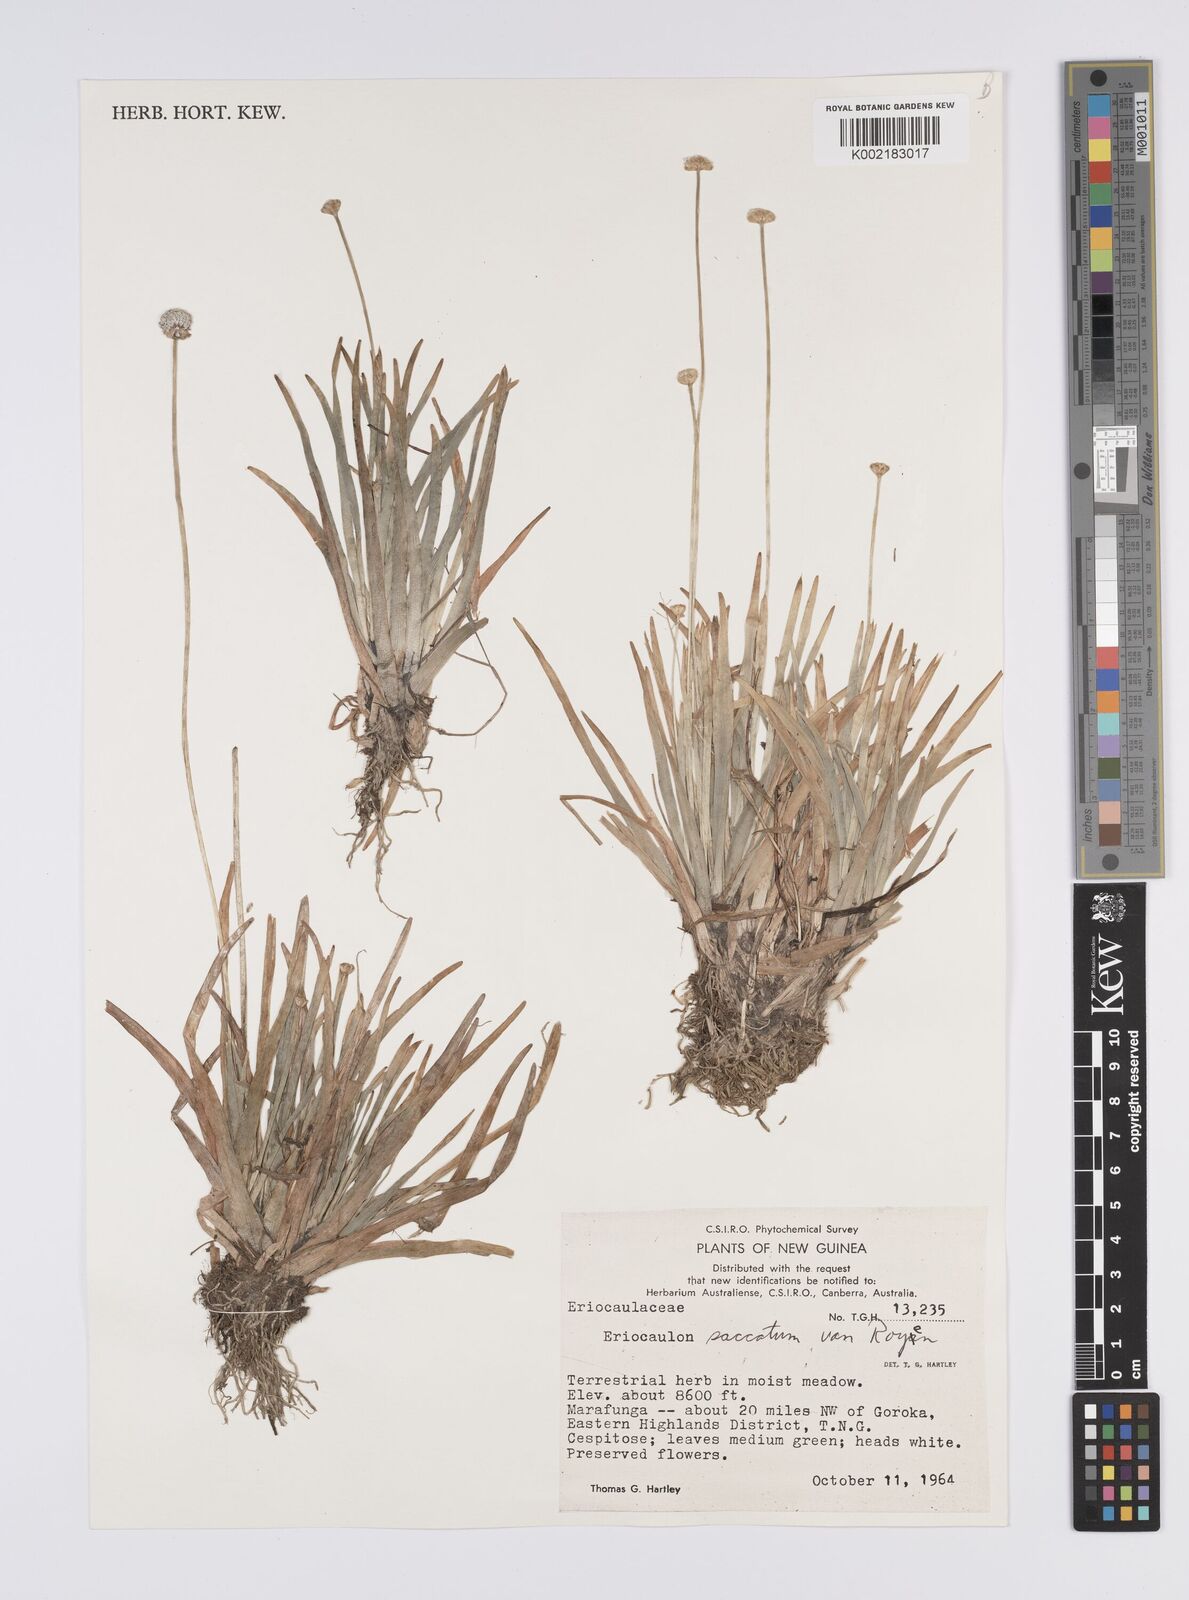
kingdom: Plantae
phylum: Tracheophyta
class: Liliopsida
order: Poales
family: Eriocaulaceae
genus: Eriocaulon
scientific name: Eriocaulon saccatum
